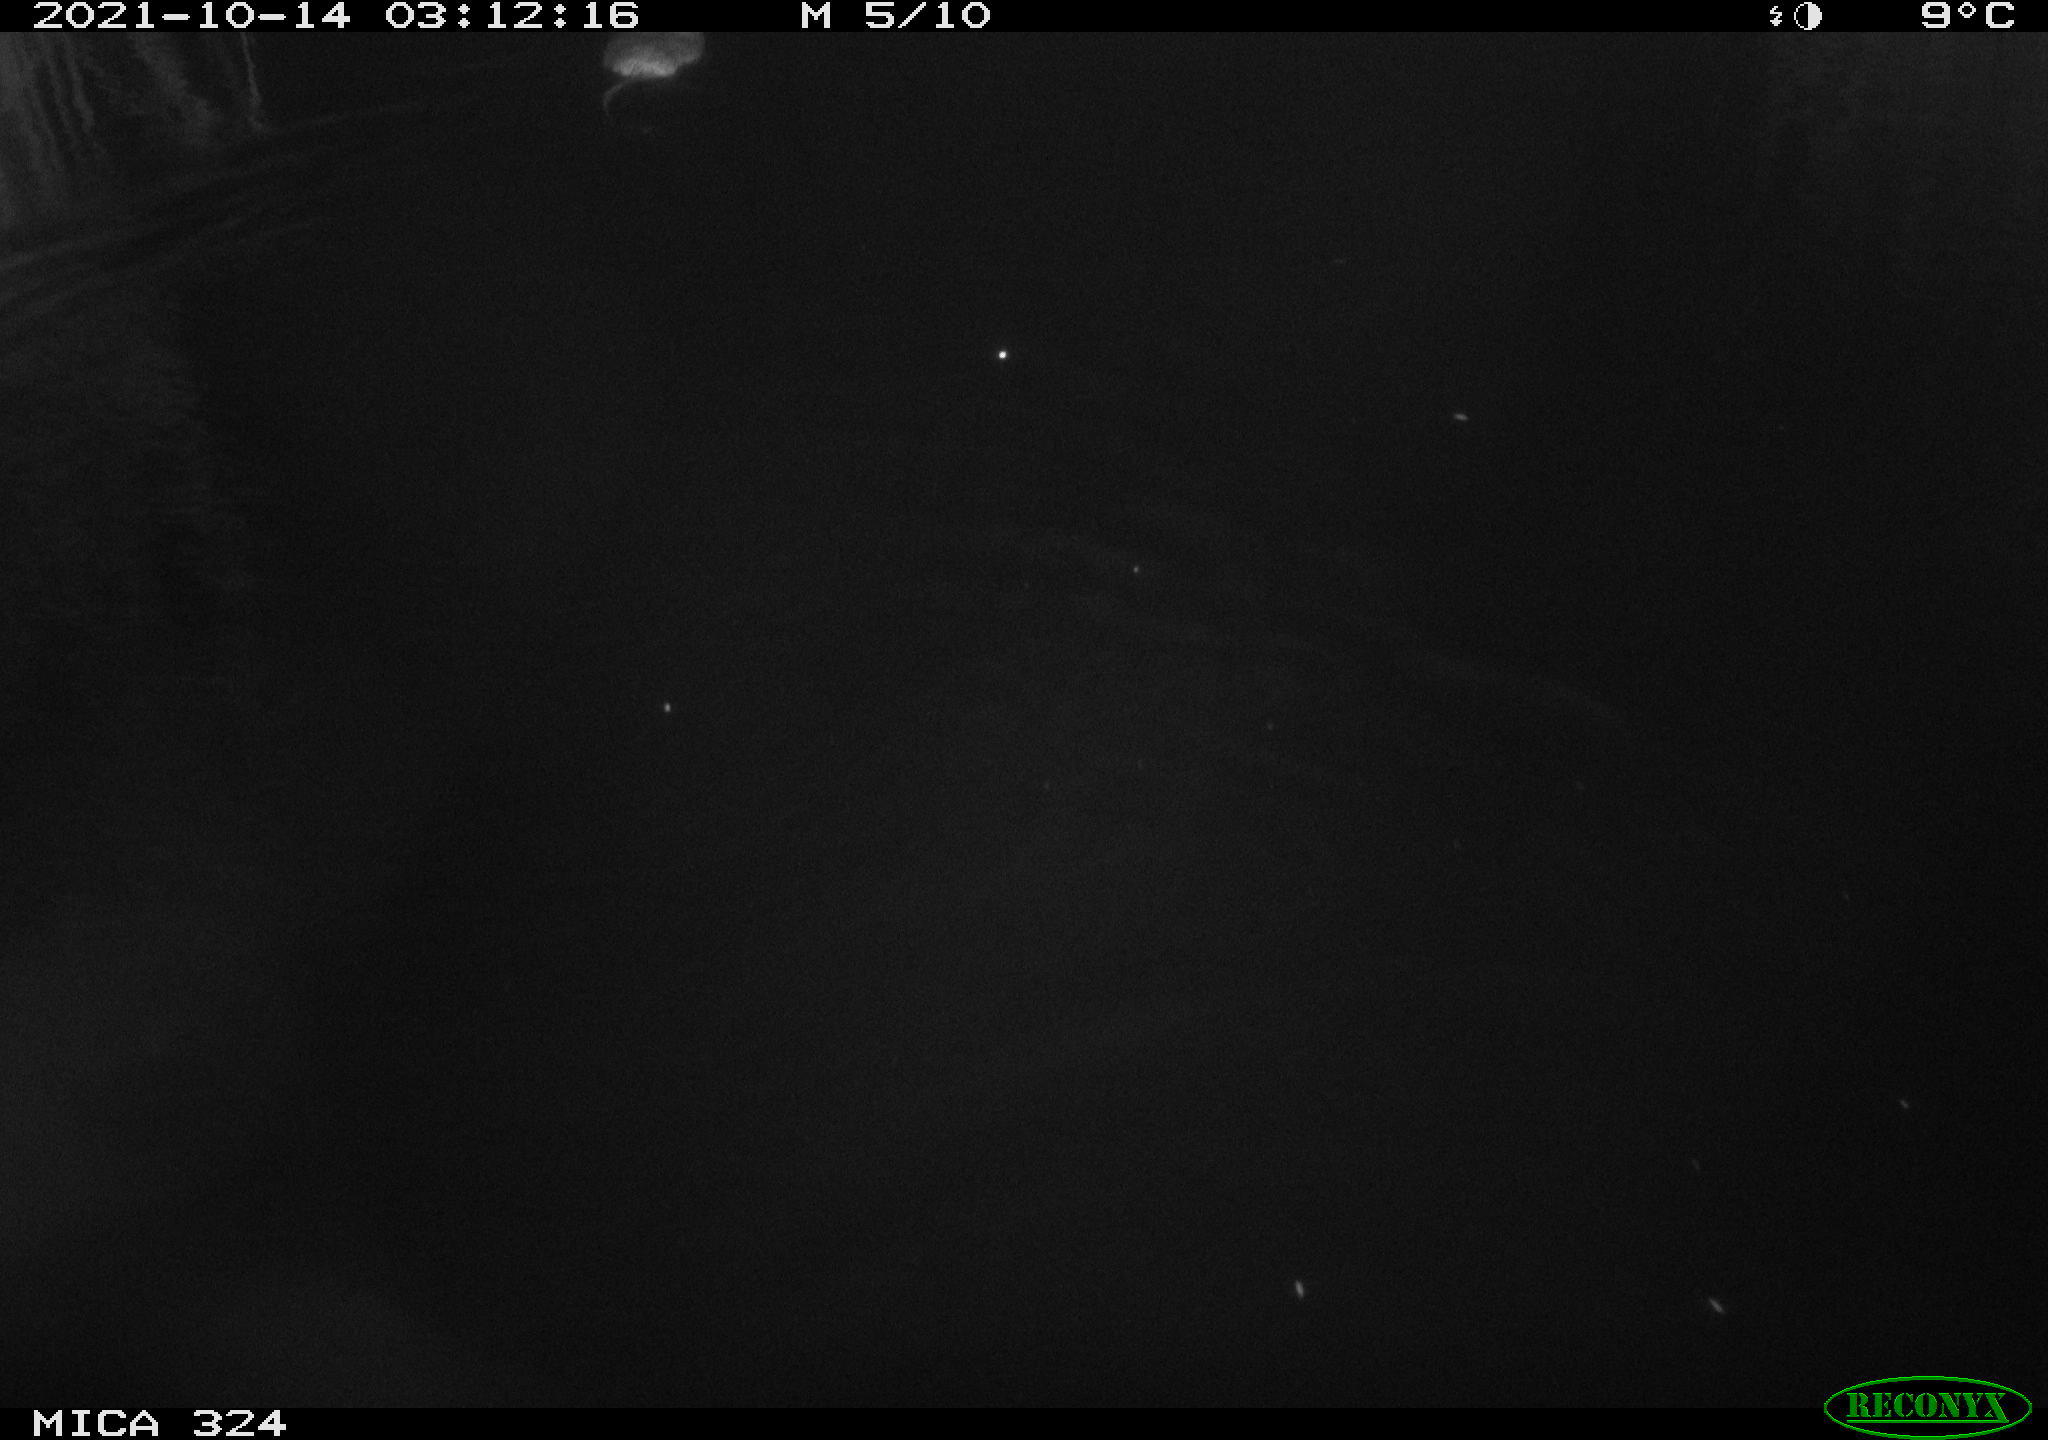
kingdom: Animalia
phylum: Chordata
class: Mammalia
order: Rodentia
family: Cricetidae
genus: Ondatra
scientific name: Ondatra zibethicus
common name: Muskrat
